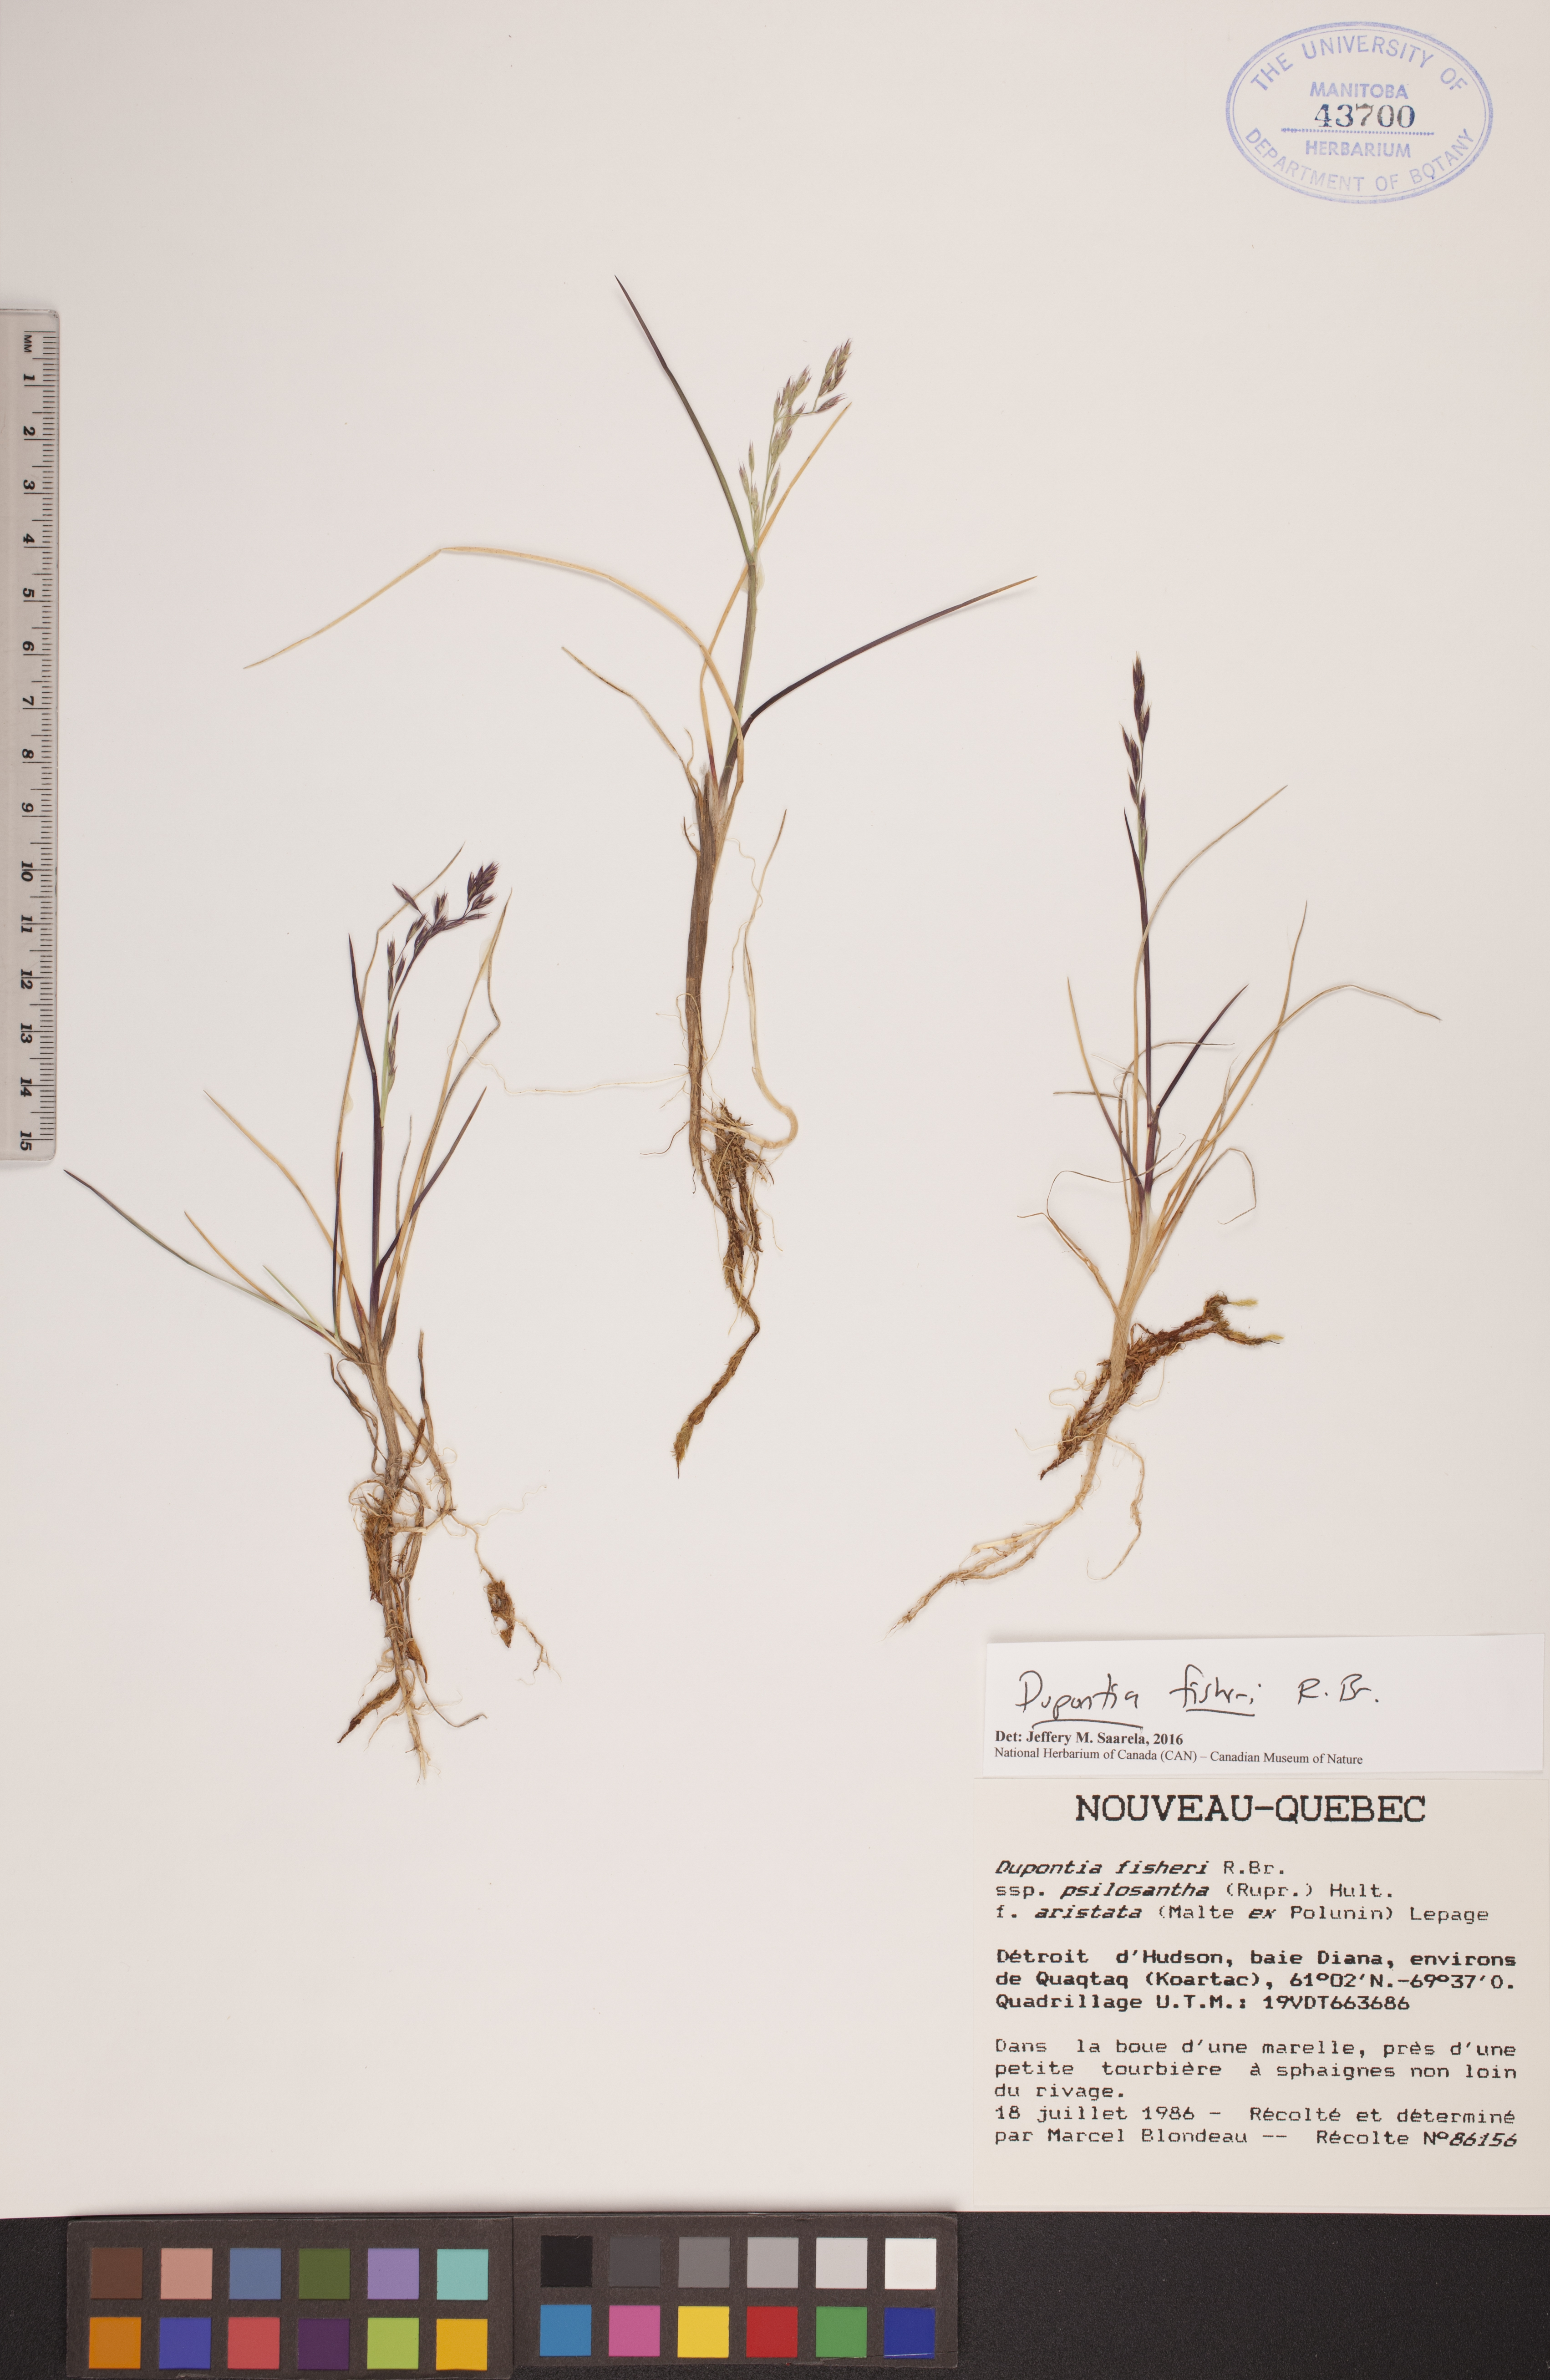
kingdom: Plantae
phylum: Tracheophyta
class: Liliopsida
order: Poales
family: Poaceae
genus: Dupontia
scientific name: Dupontia fisheri
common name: Tundra grass
